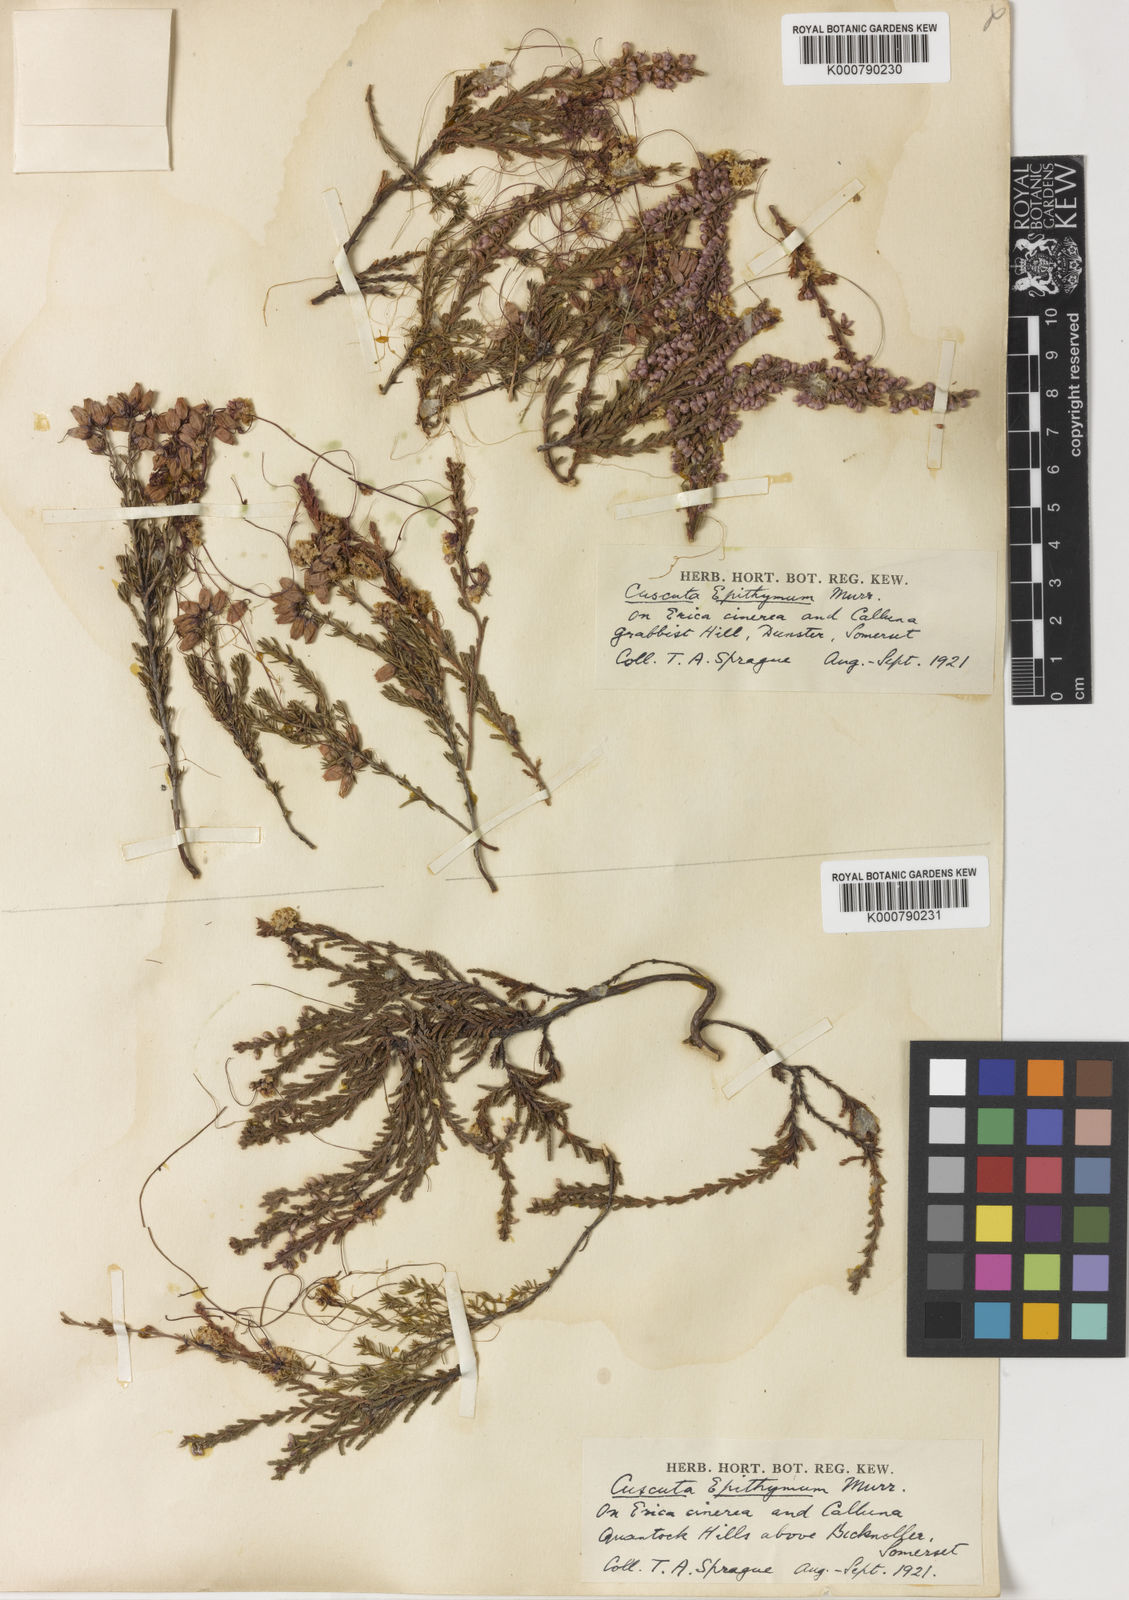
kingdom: Plantae
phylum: Tracheophyta
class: Magnoliopsida
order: Solanales
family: Convolvulaceae
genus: Cuscuta
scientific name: Cuscuta epithymum
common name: Clover dodder
